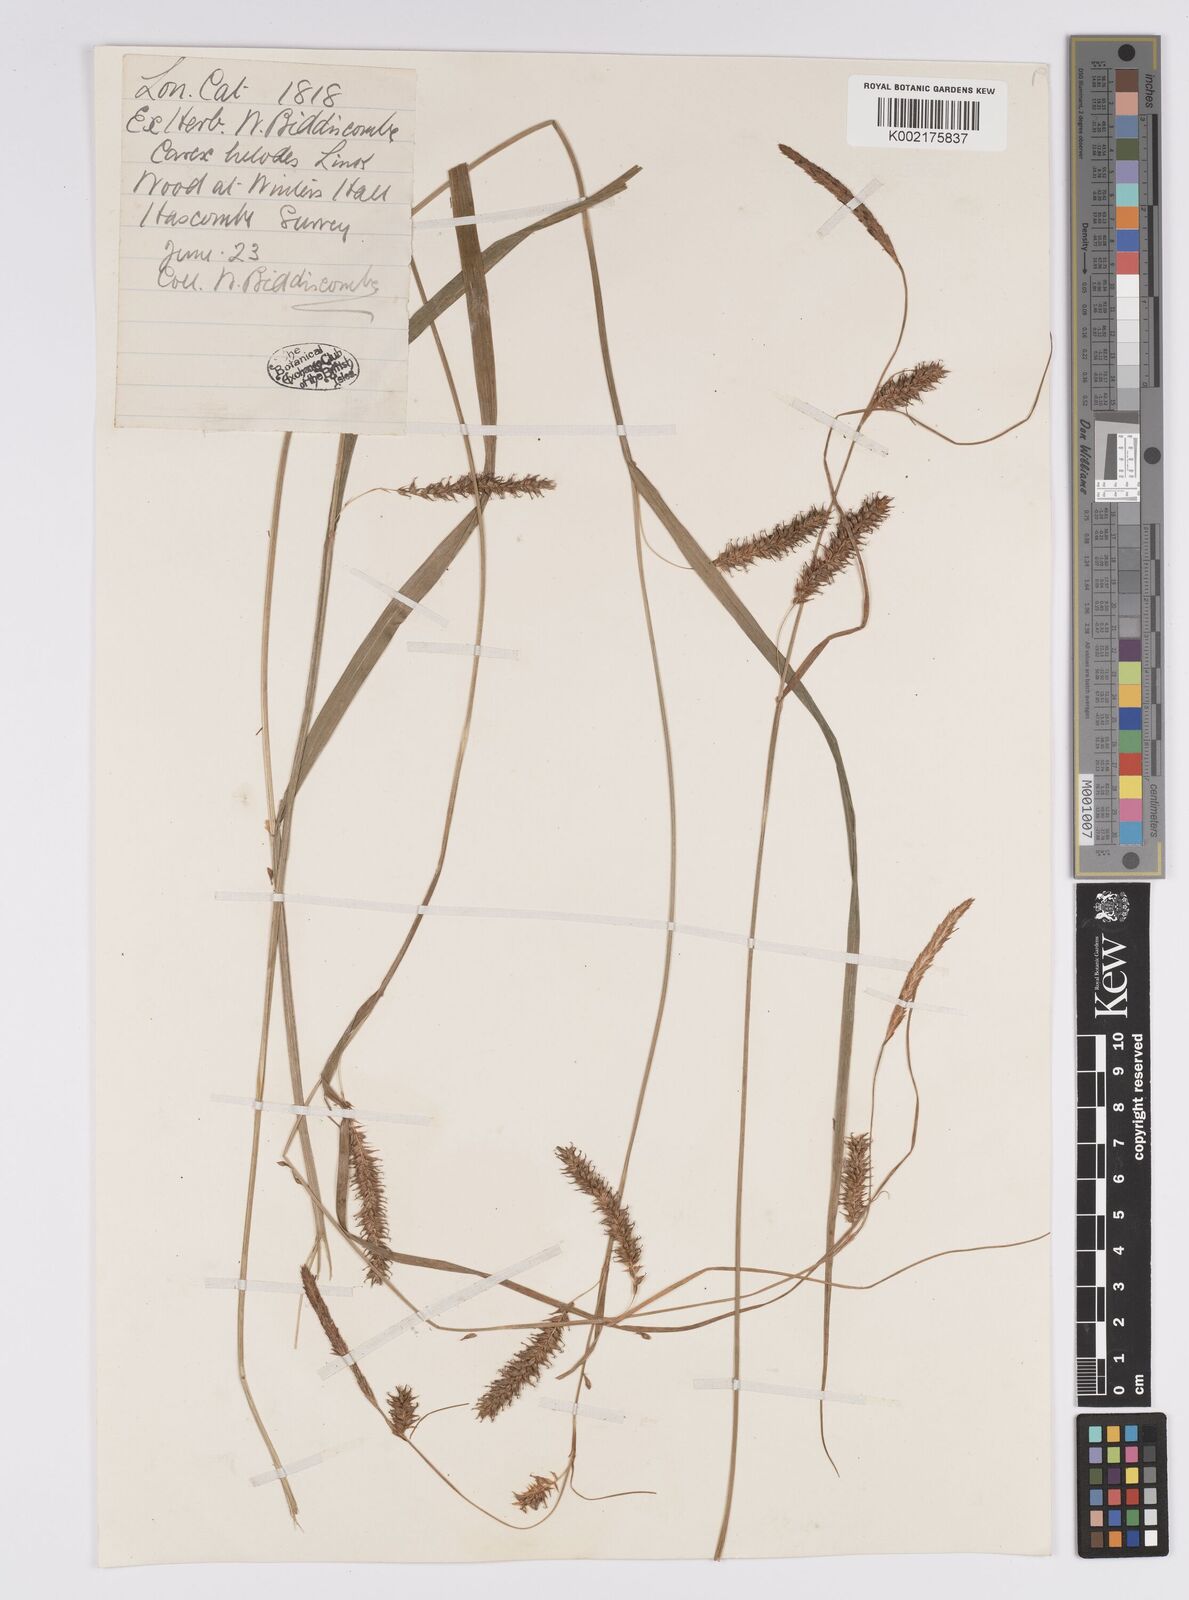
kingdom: Plantae
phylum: Tracheophyta
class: Liliopsida
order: Poales
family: Cyperaceae
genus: Carex
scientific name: Carex laevigata
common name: Smooth-stalked sedge
